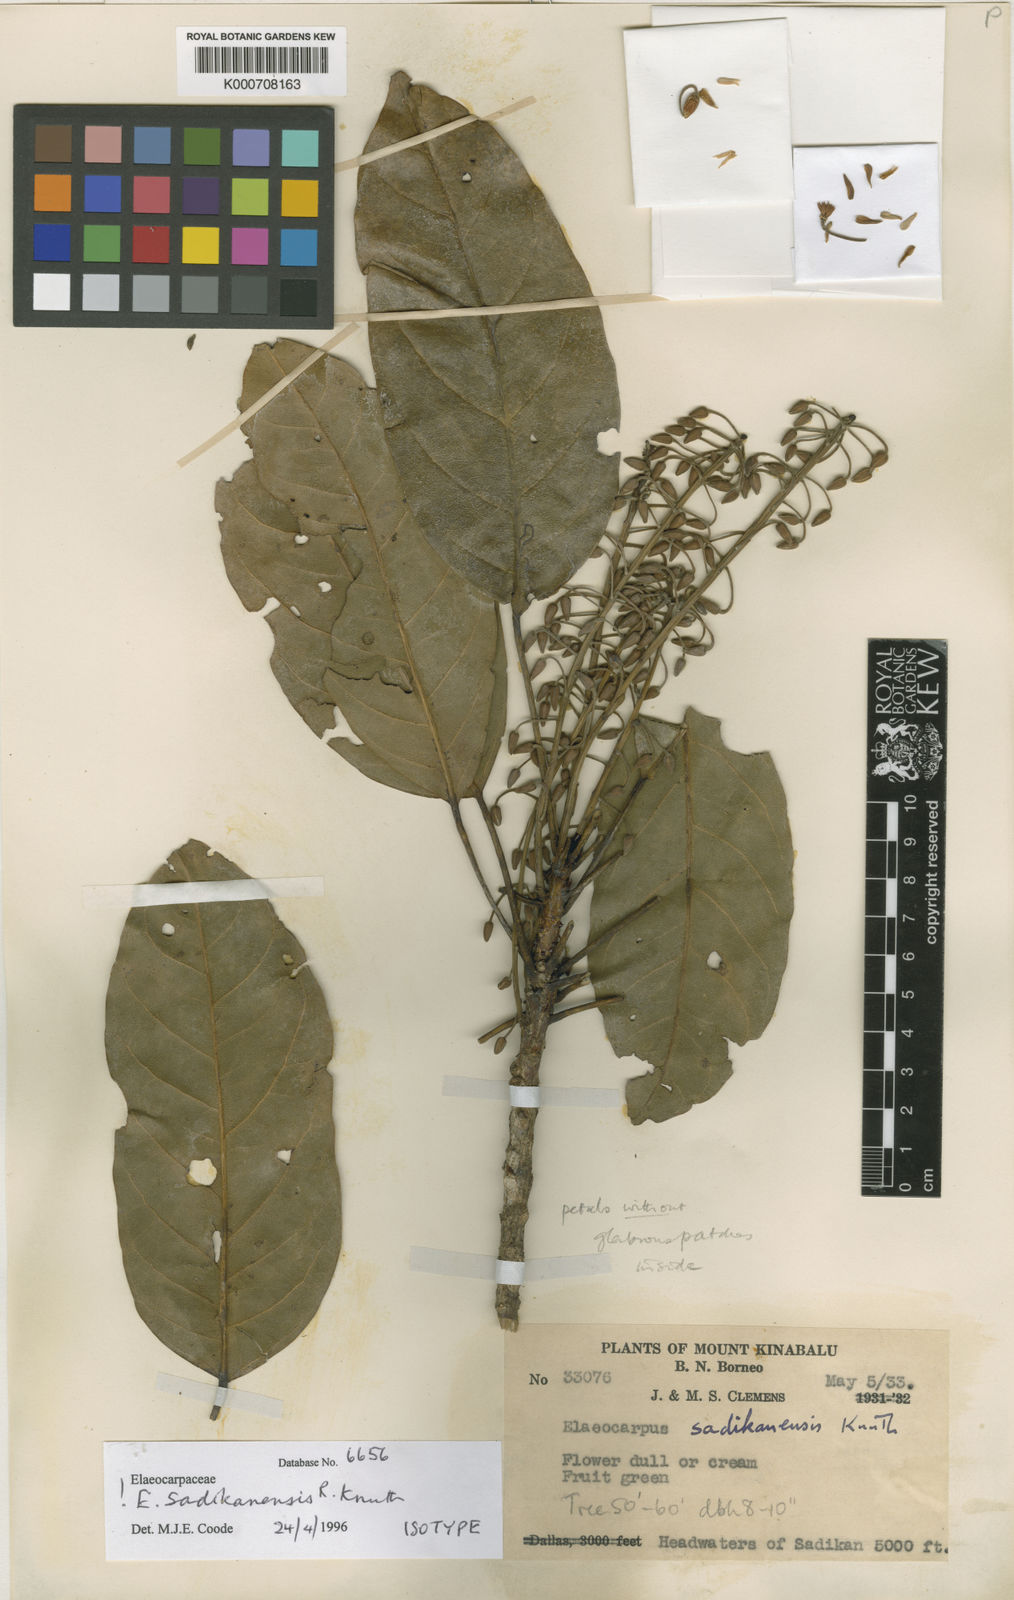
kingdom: Plantae
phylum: Tracheophyta
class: Magnoliopsida
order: Oxalidales
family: Elaeocarpaceae
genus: Elaeocarpus
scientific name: Elaeocarpus sadikanensis
